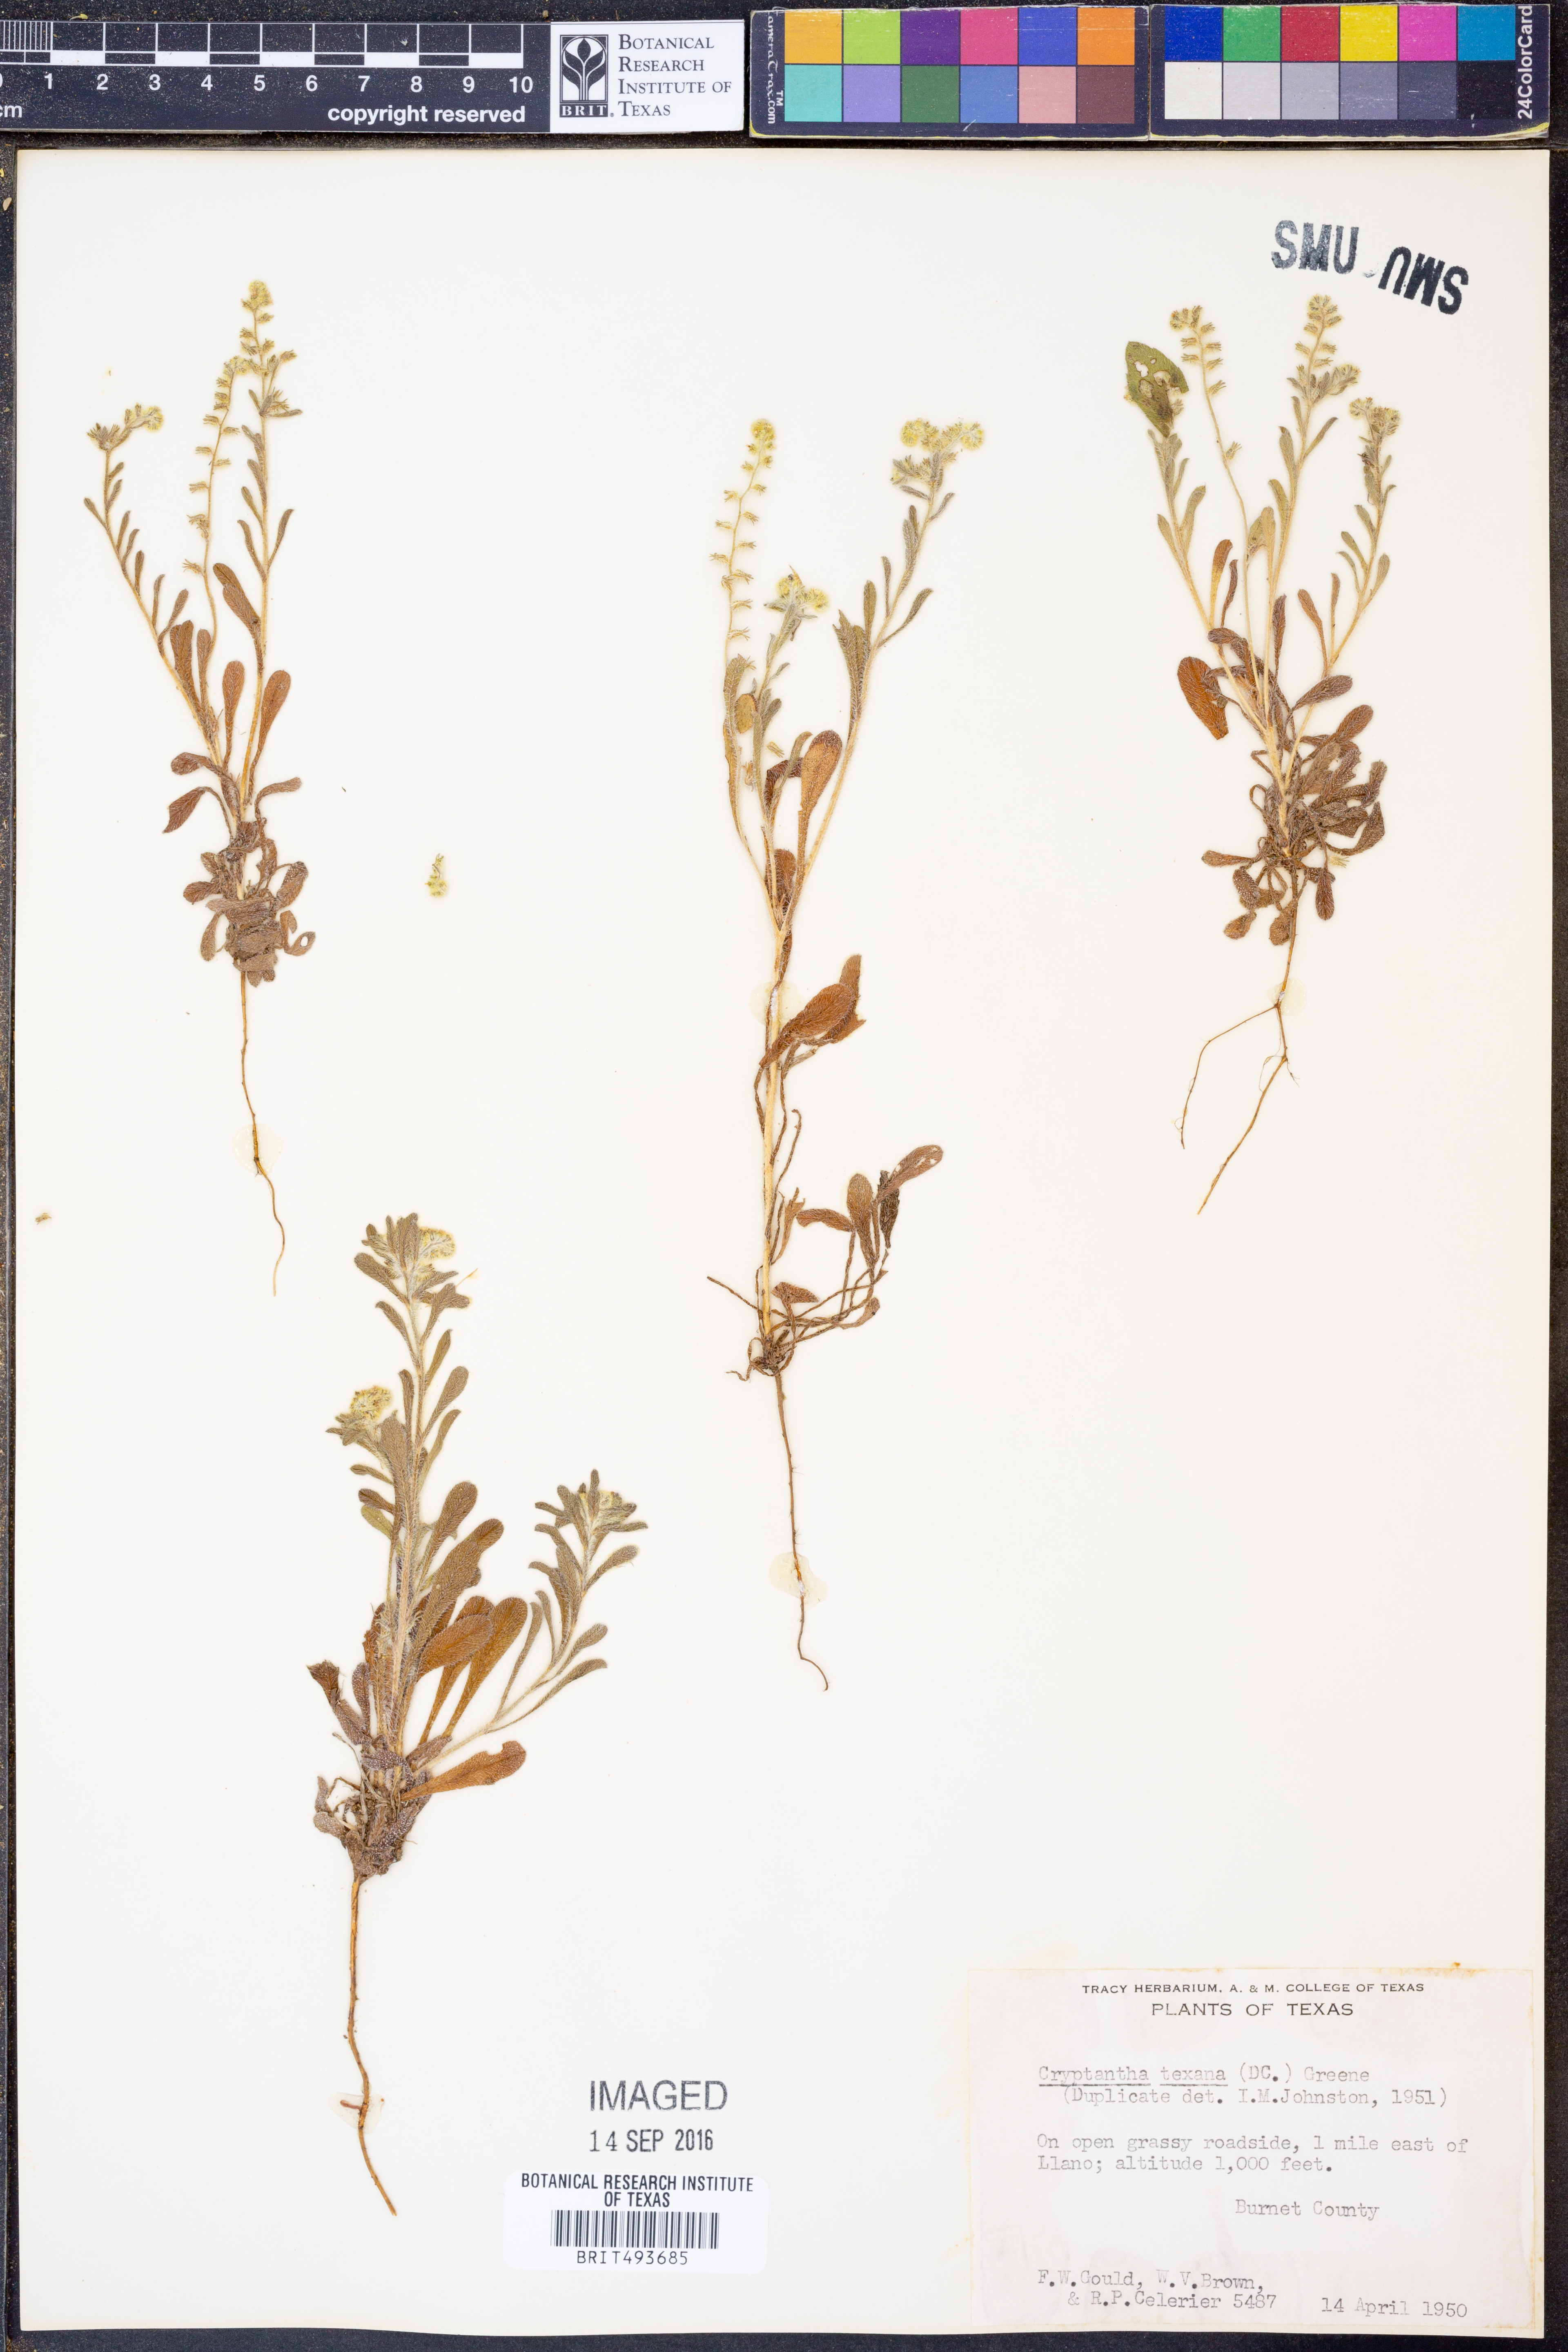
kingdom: Plantae
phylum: Tracheophyta
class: Magnoliopsida
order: Boraginales
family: Boraginaceae
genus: Cryptantha
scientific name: Cryptantha texana
